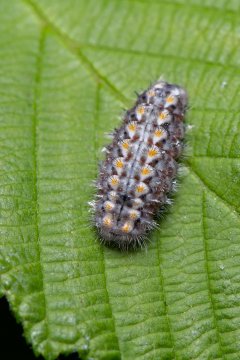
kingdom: Animalia
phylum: Arthropoda
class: Insecta
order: Lepidoptera
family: Lycaenidae
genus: Feniseca
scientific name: Feniseca tarquinius
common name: Harvester
